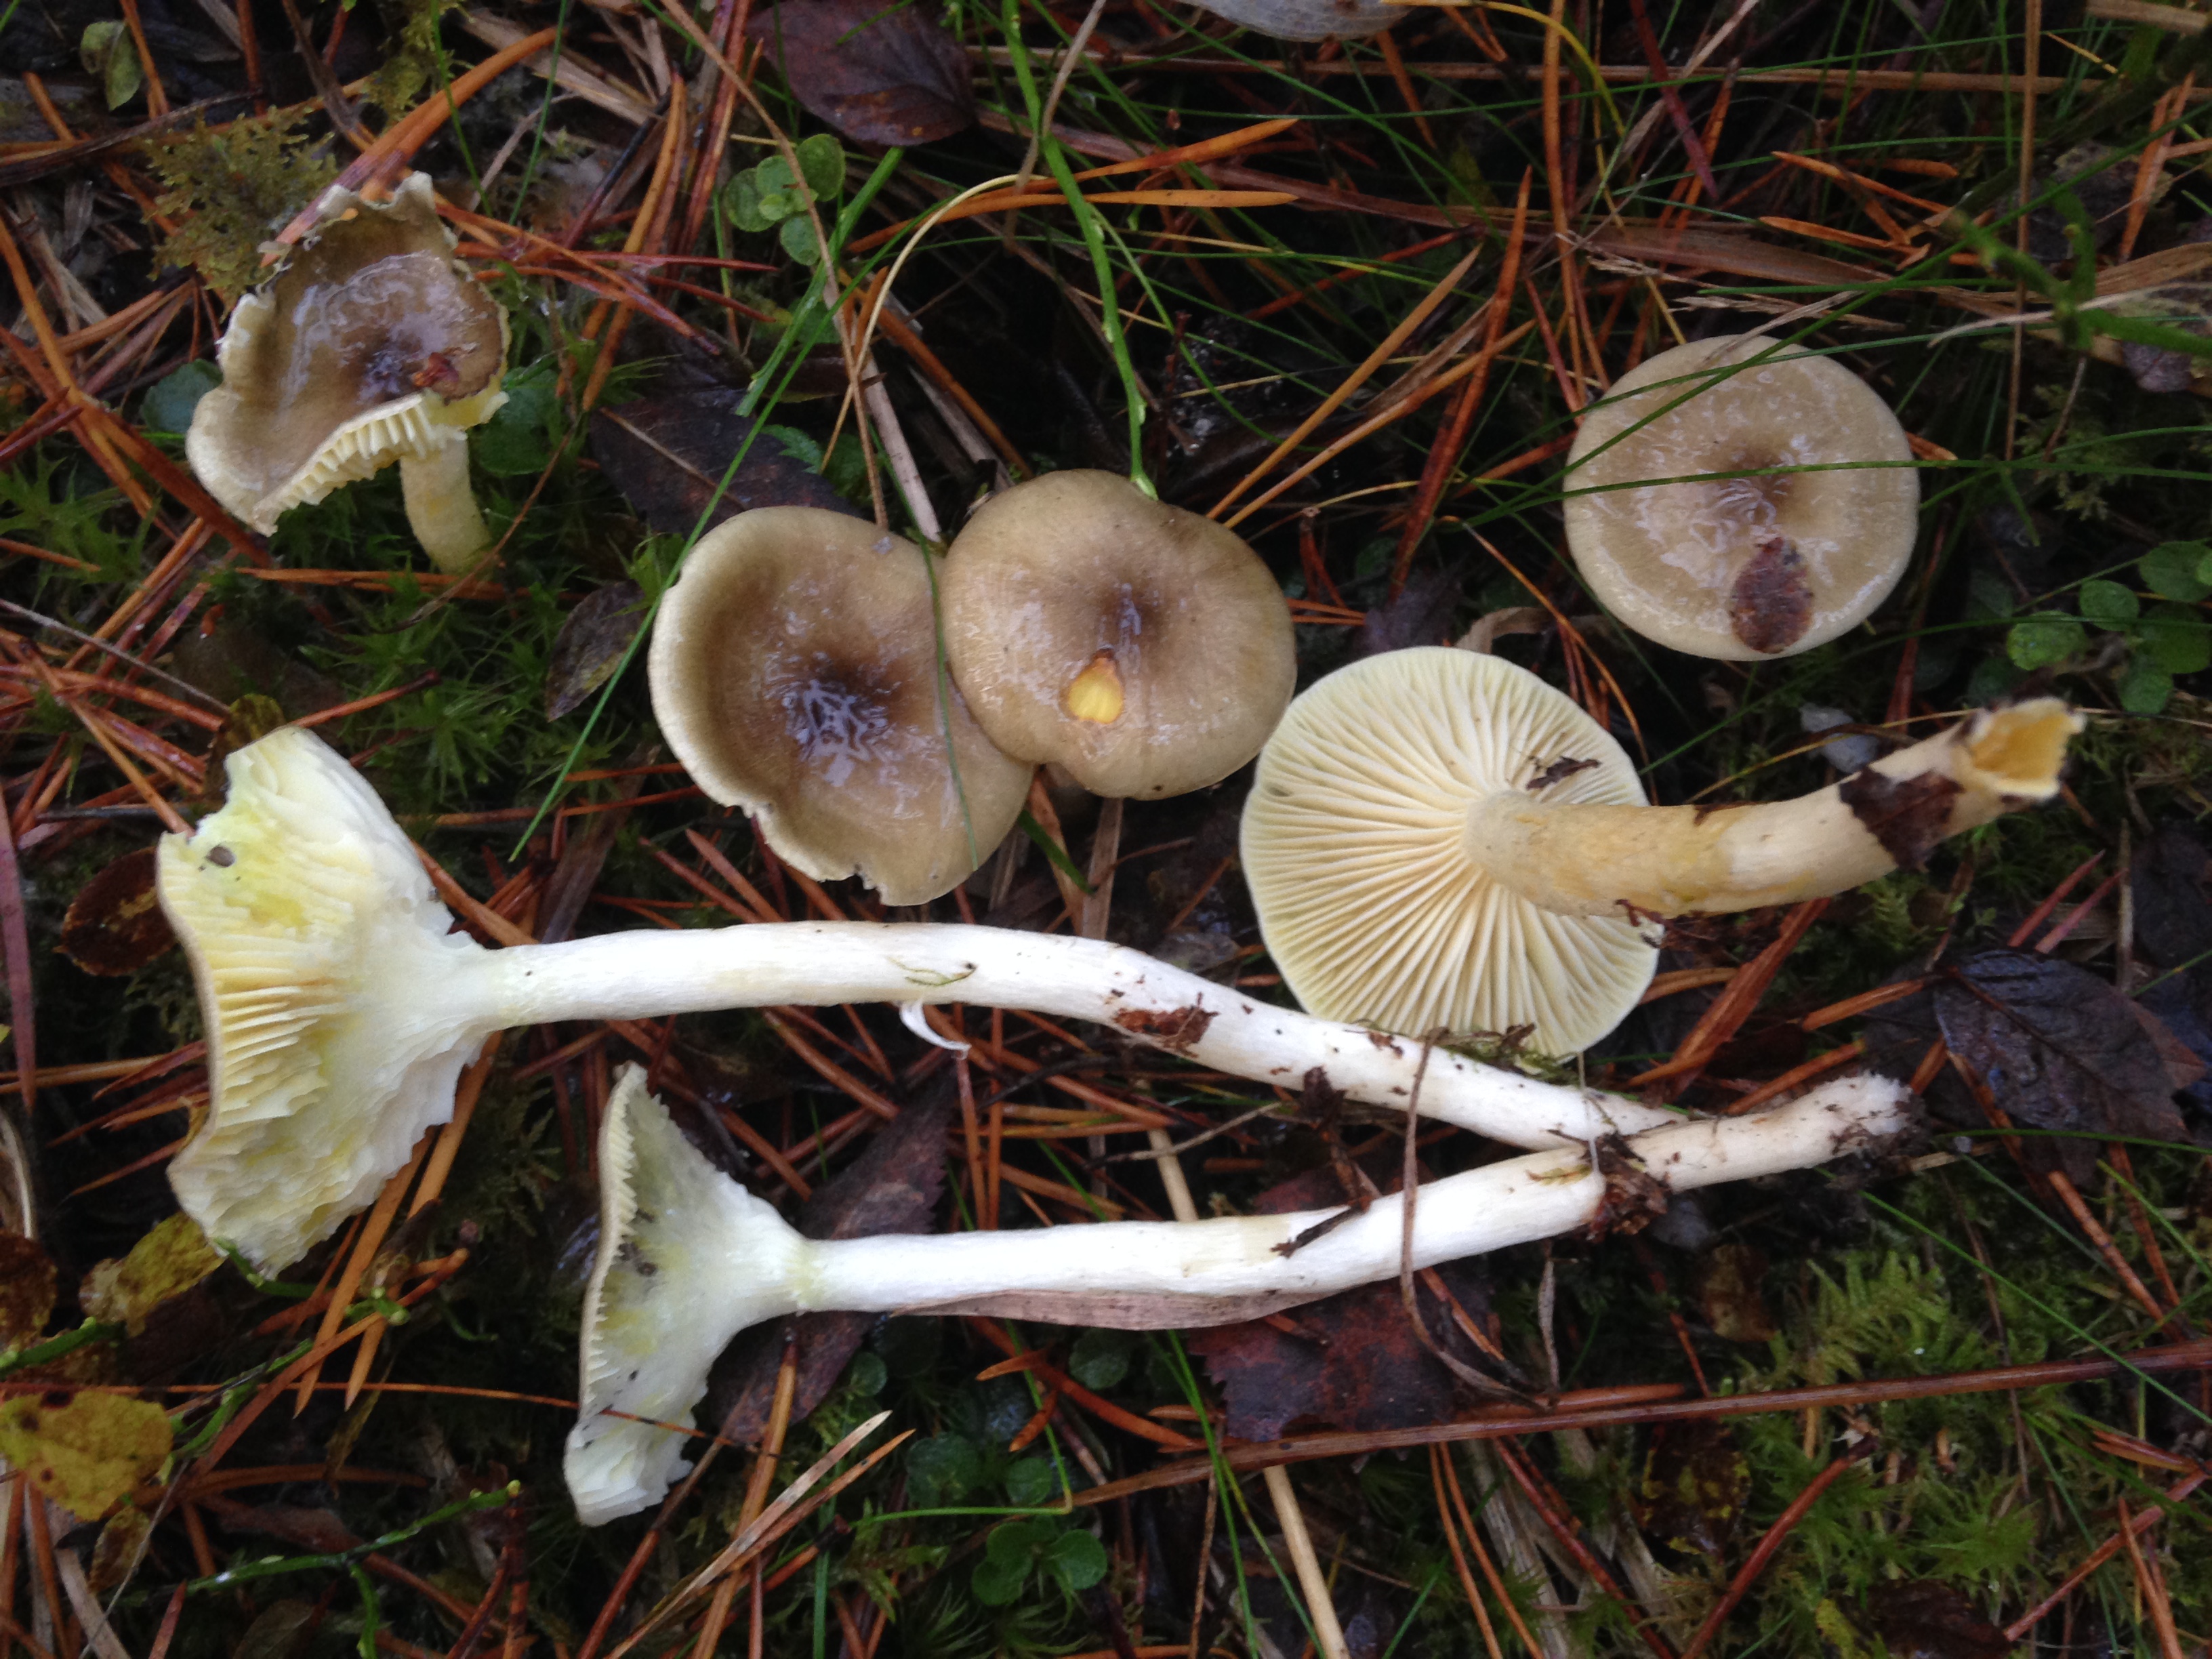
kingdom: Fungi
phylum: Basidiomycota
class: Agaricomycetes
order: Agaricales
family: Hygrophoraceae
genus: Hygrophorus
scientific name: Hygrophorus hypothejus
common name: Herald of winter
